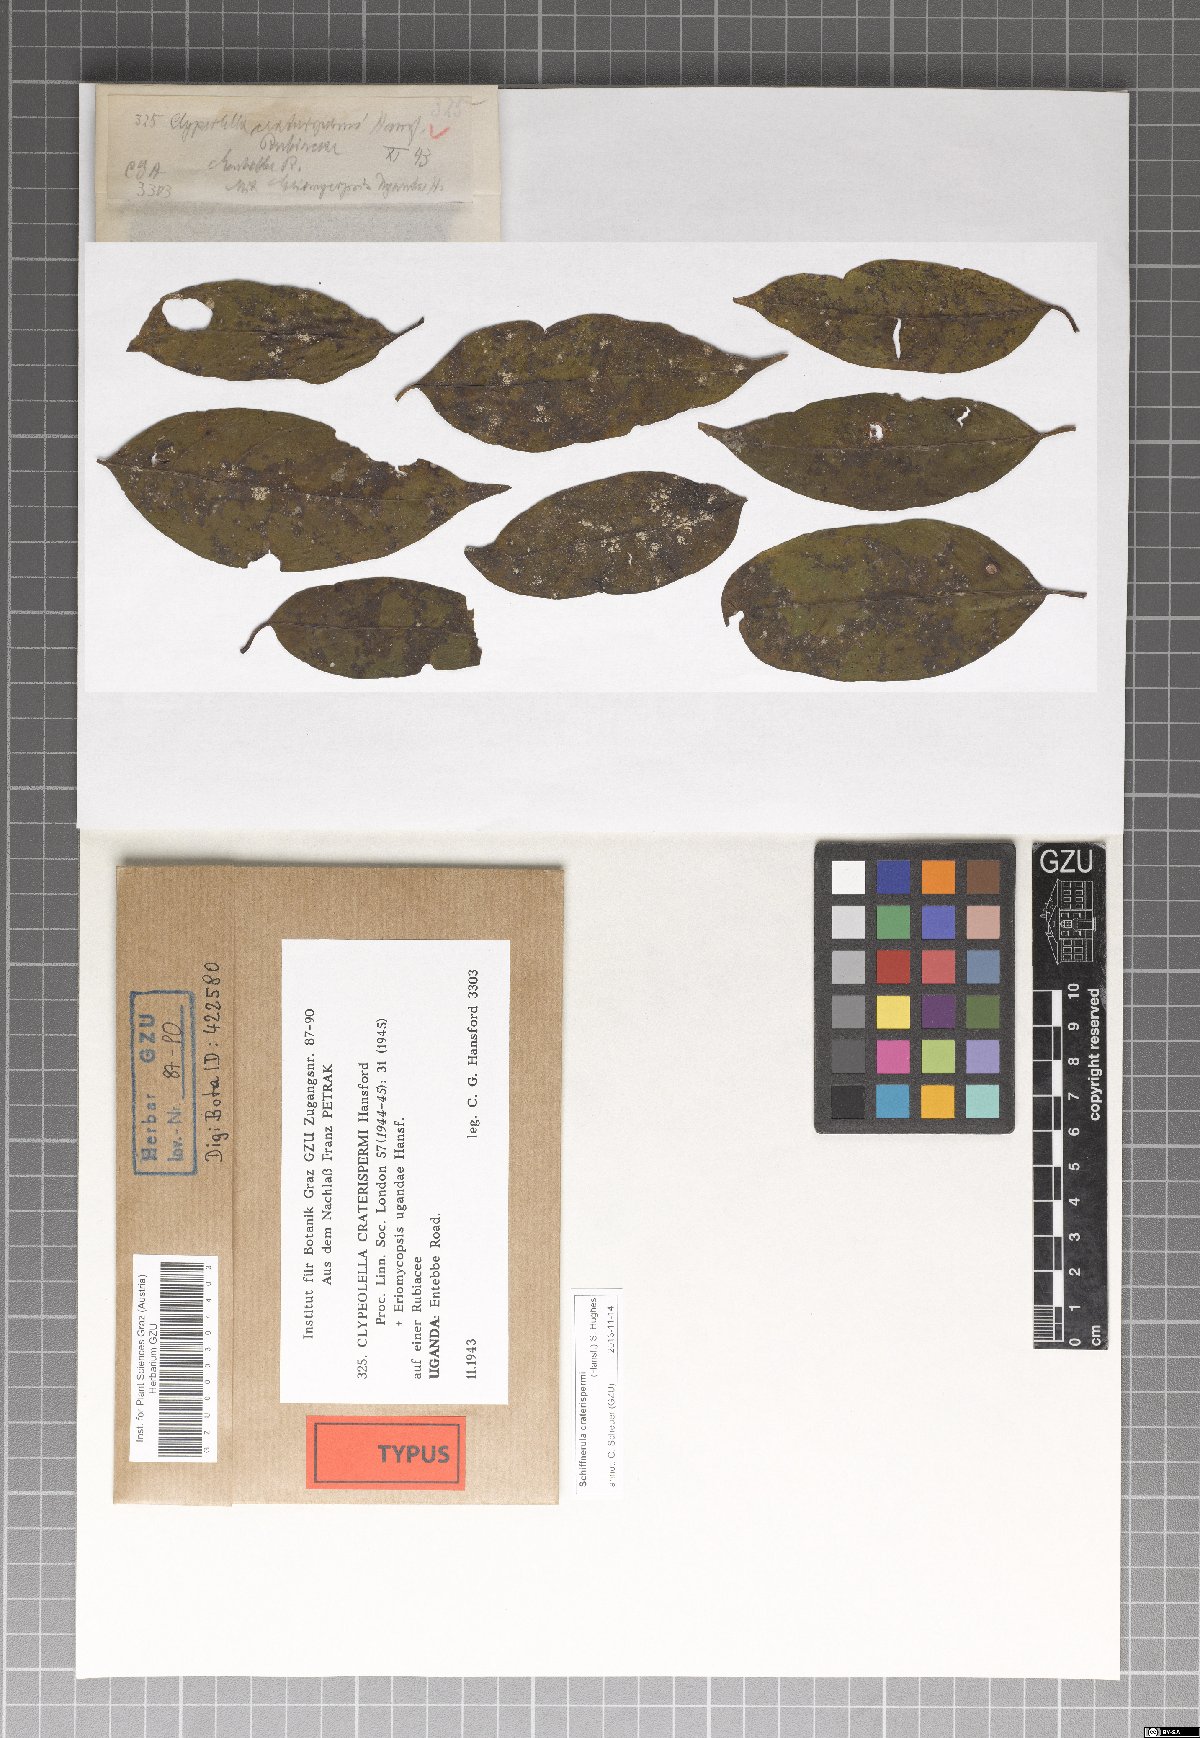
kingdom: Fungi
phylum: Ascomycota
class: Dothideomycetes
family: Englerulaceae
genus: Schiffnerula
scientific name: Schiffnerula craterispermi
